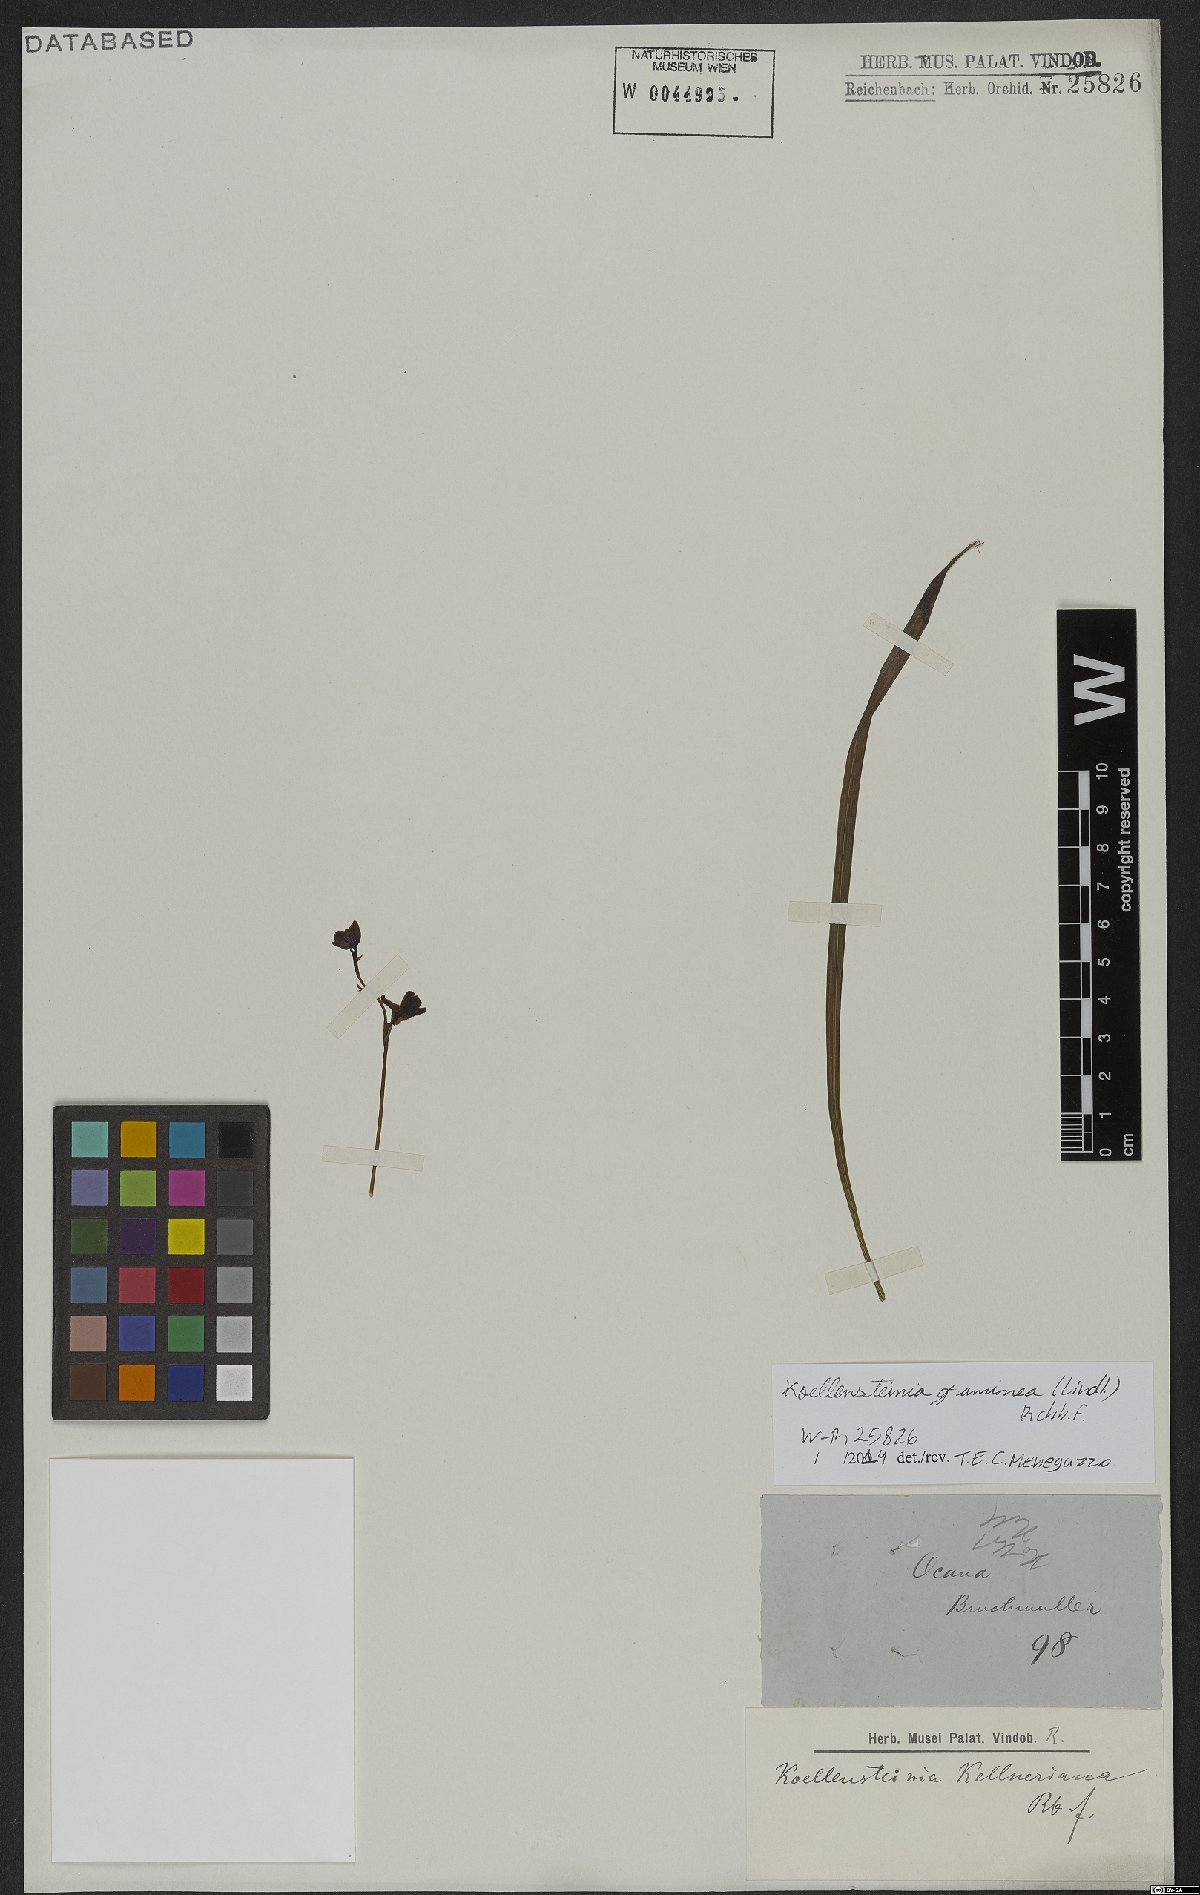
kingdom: Plantae
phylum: Tracheophyta
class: Liliopsida
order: Asparagales
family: Orchidaceae
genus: Koellensteinia
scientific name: Koellensteinia graminea
